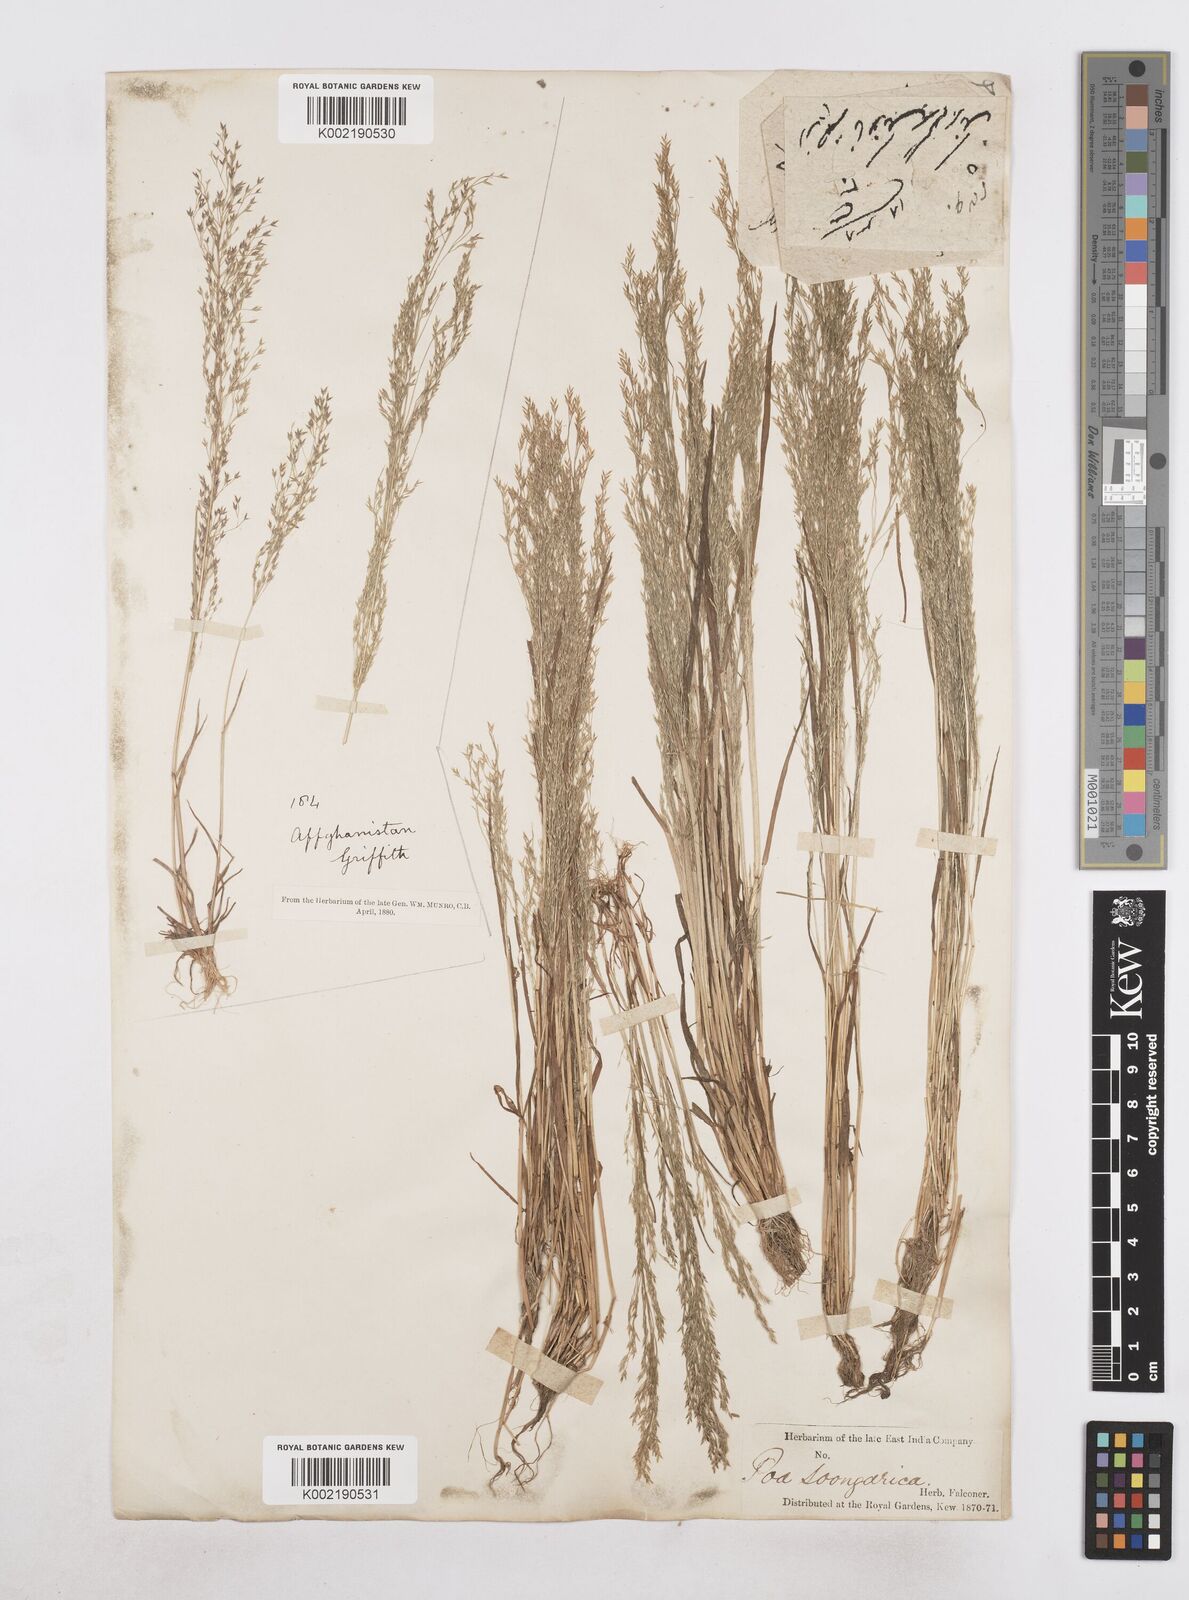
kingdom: Plantae
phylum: Tracheophyta
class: Liliopsida
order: Poales
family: Poaceae
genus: Poa
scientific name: Poa diaphora
